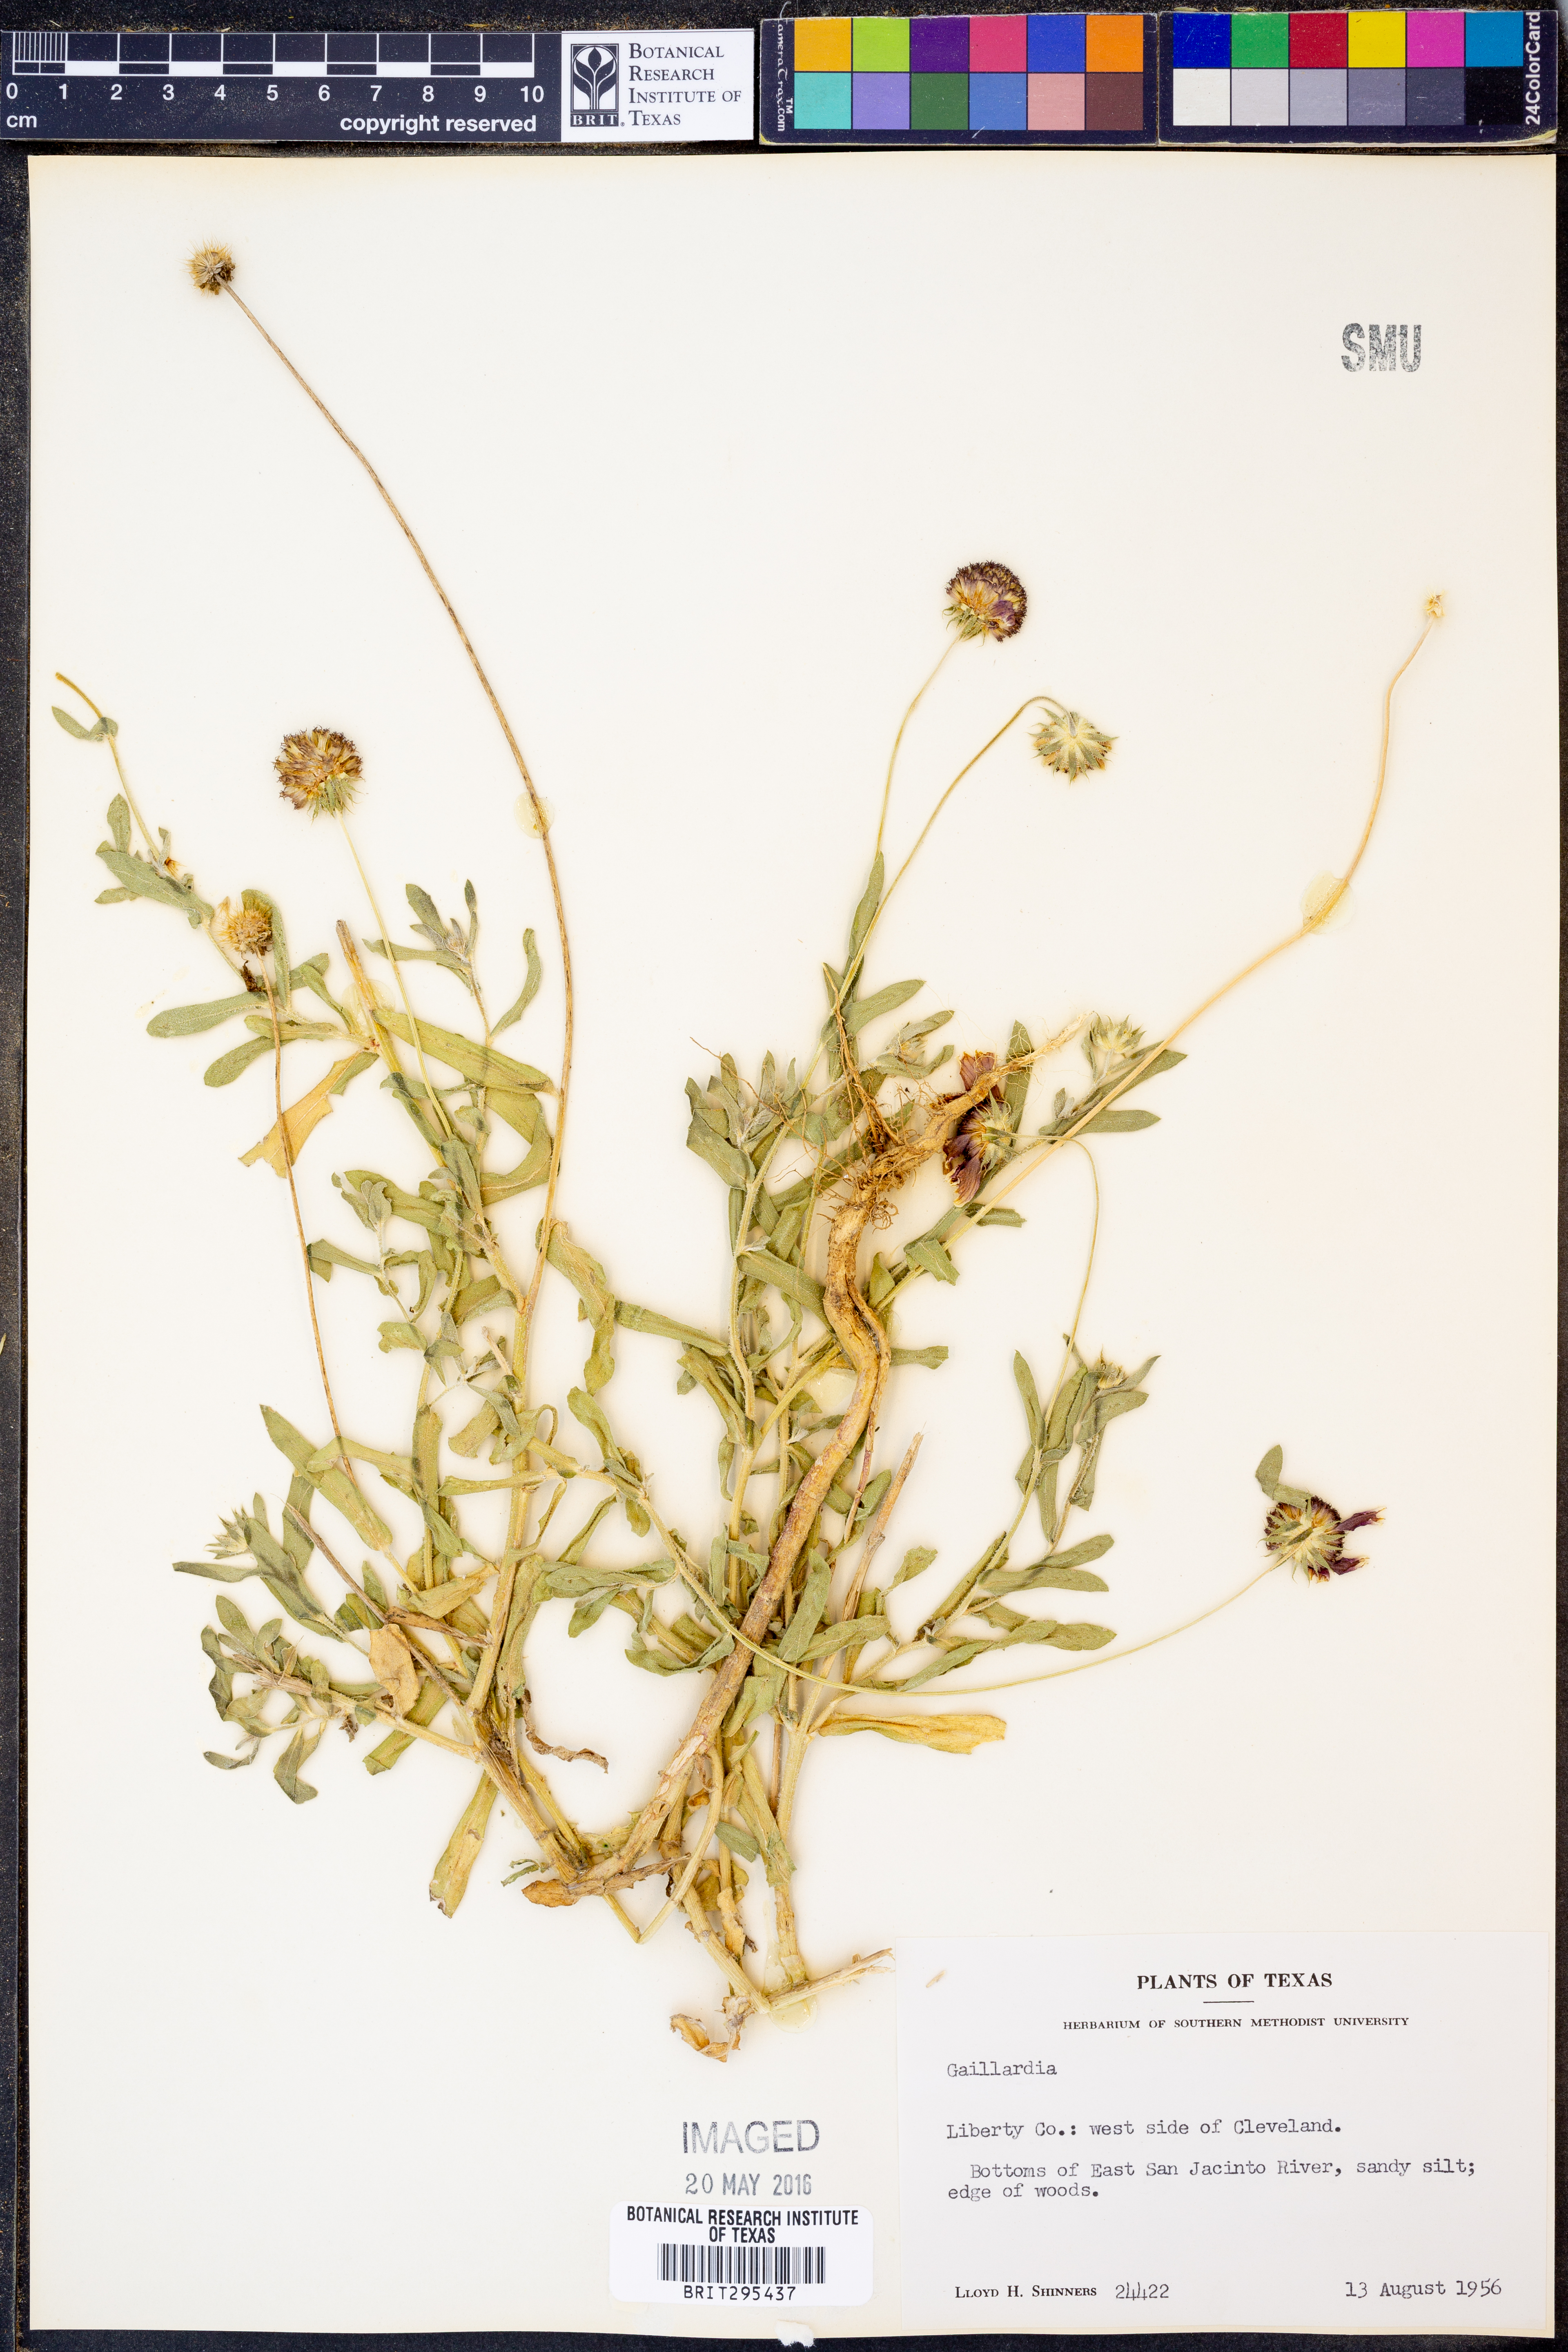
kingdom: Plantae
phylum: Tracheophyta
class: Magnoliopsida
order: Asterales
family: Asteraceae
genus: Gaillardia
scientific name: Gaillardia
